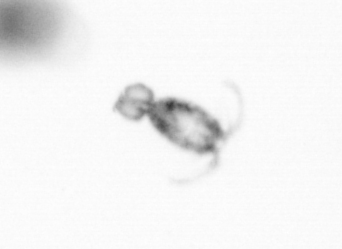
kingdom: Animalia
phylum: Arthropoda
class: Copepoda
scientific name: Copepoda
